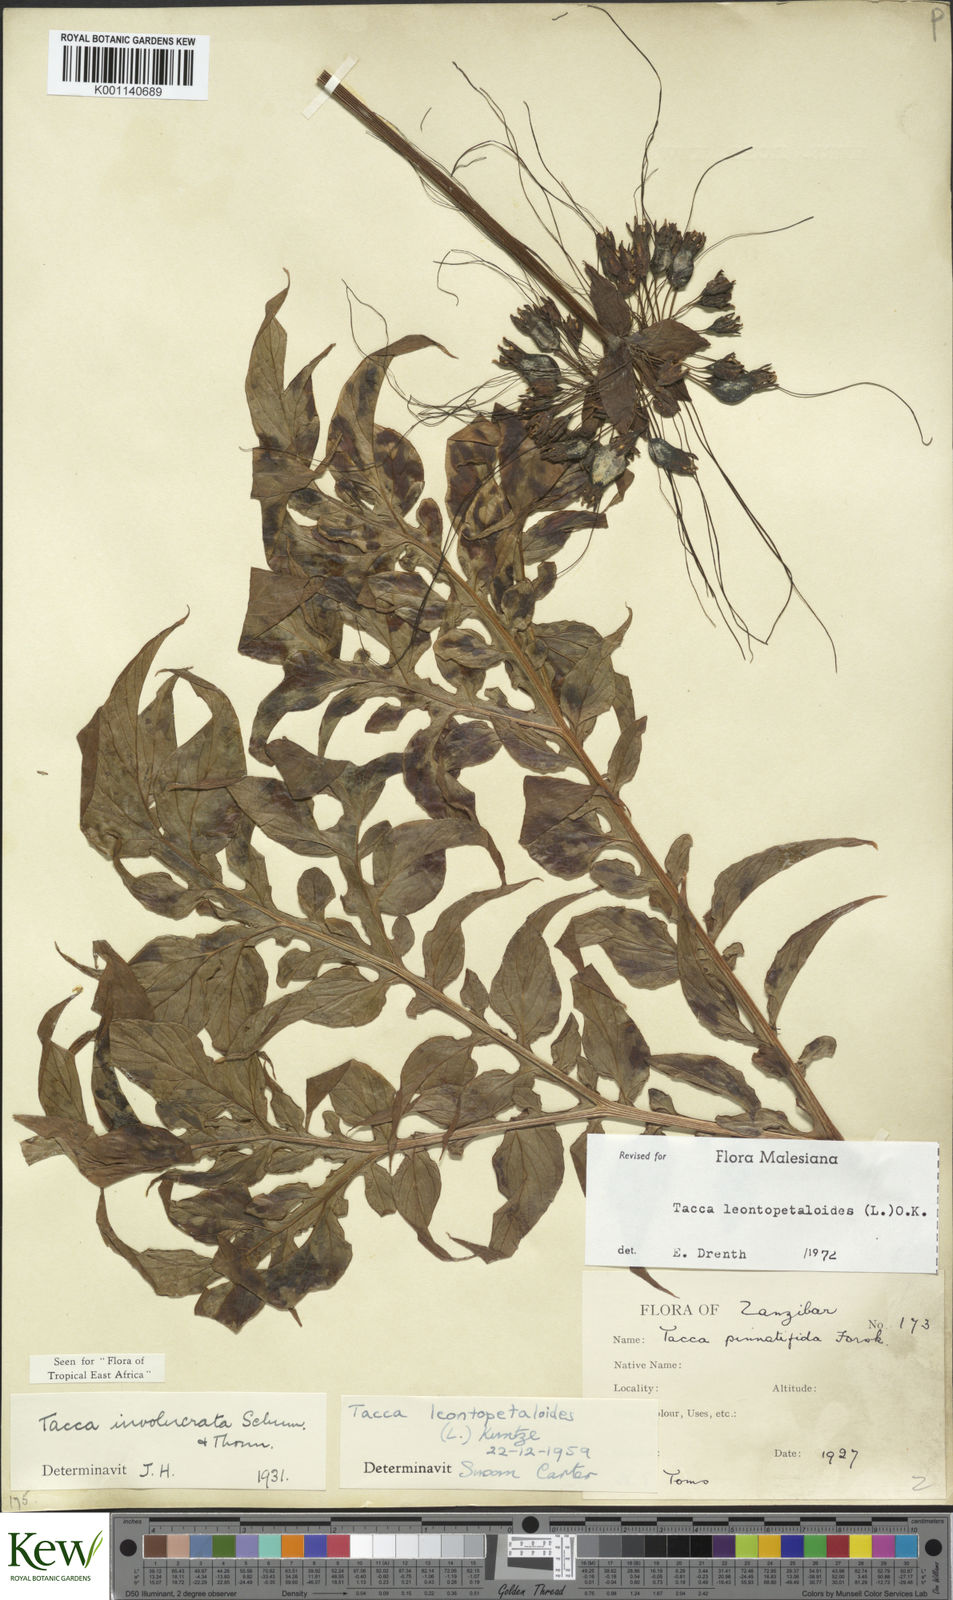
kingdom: Plantae
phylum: Tracheophyta
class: Liliopsida
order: Dioscoreales
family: Dioscoreaceae
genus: Tacca
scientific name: Tacca leontopetaloides
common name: Arrowroot
